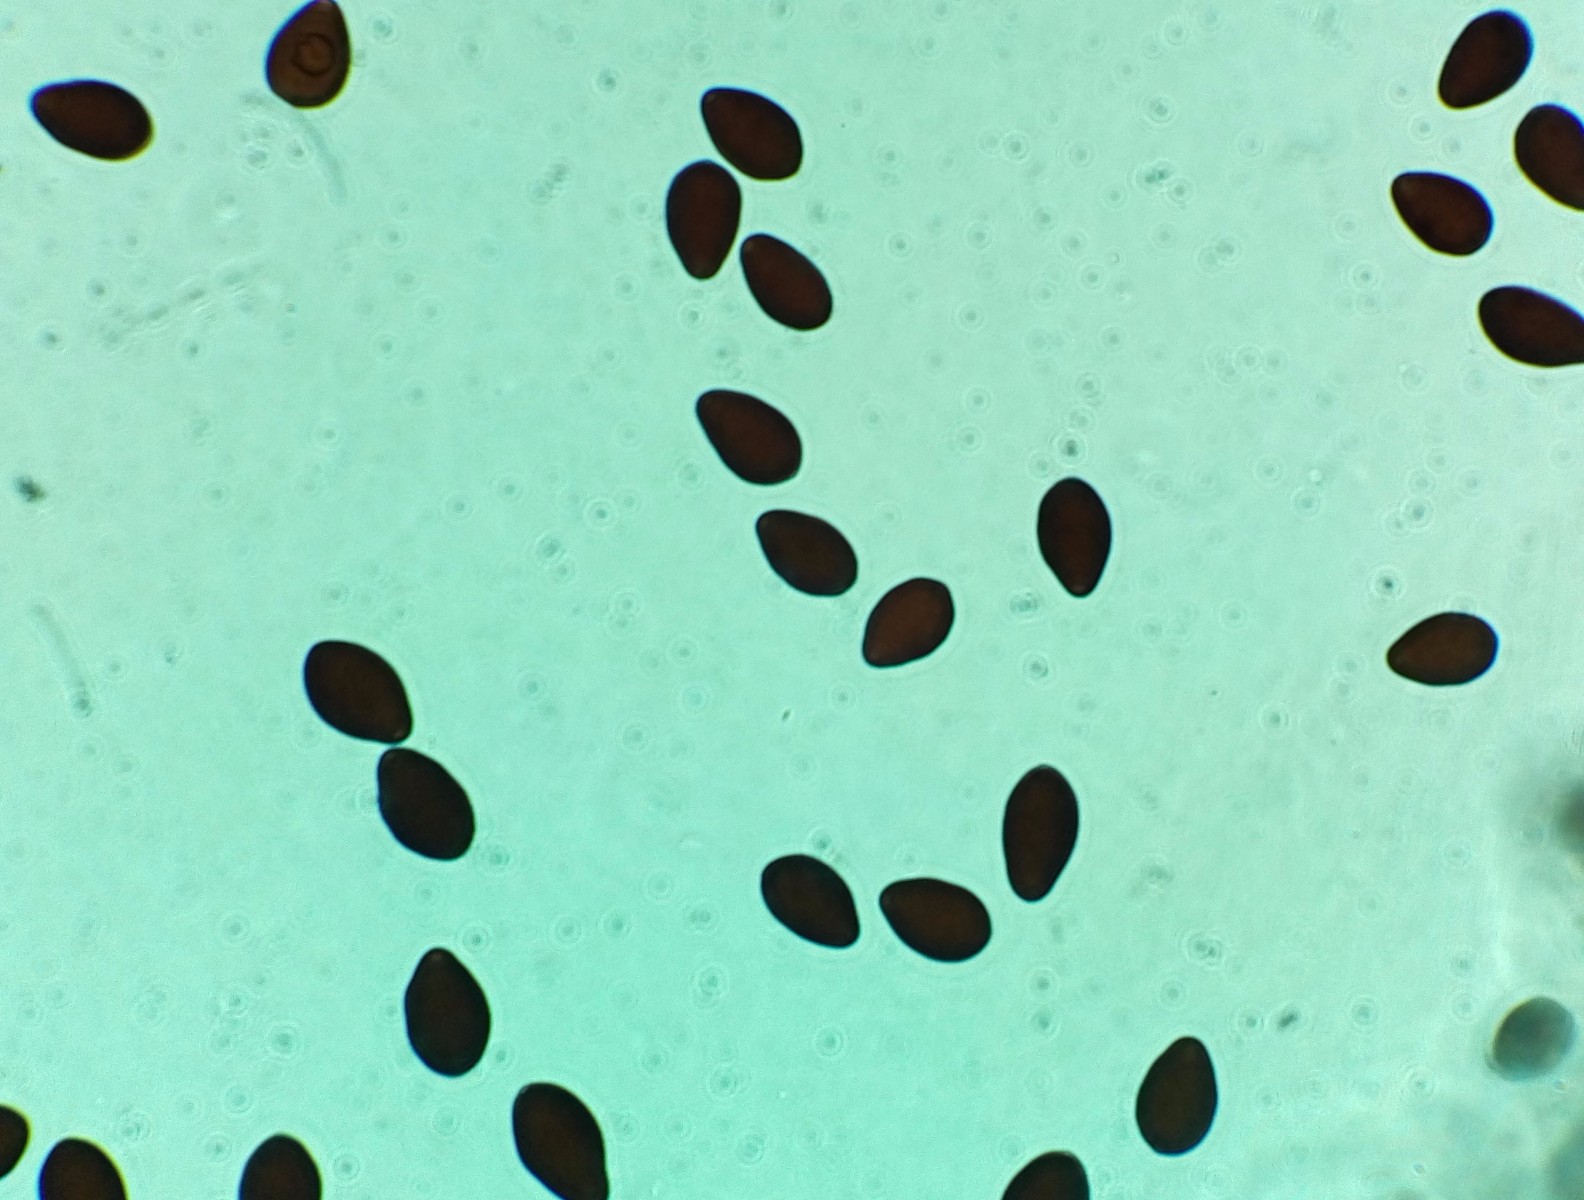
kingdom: Fungi
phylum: Basidiomycota
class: Agaricomycetes
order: Agaricales
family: Psathyrellaceae
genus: Parasola
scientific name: Parasola megasperma
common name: storsporet hjulhat
